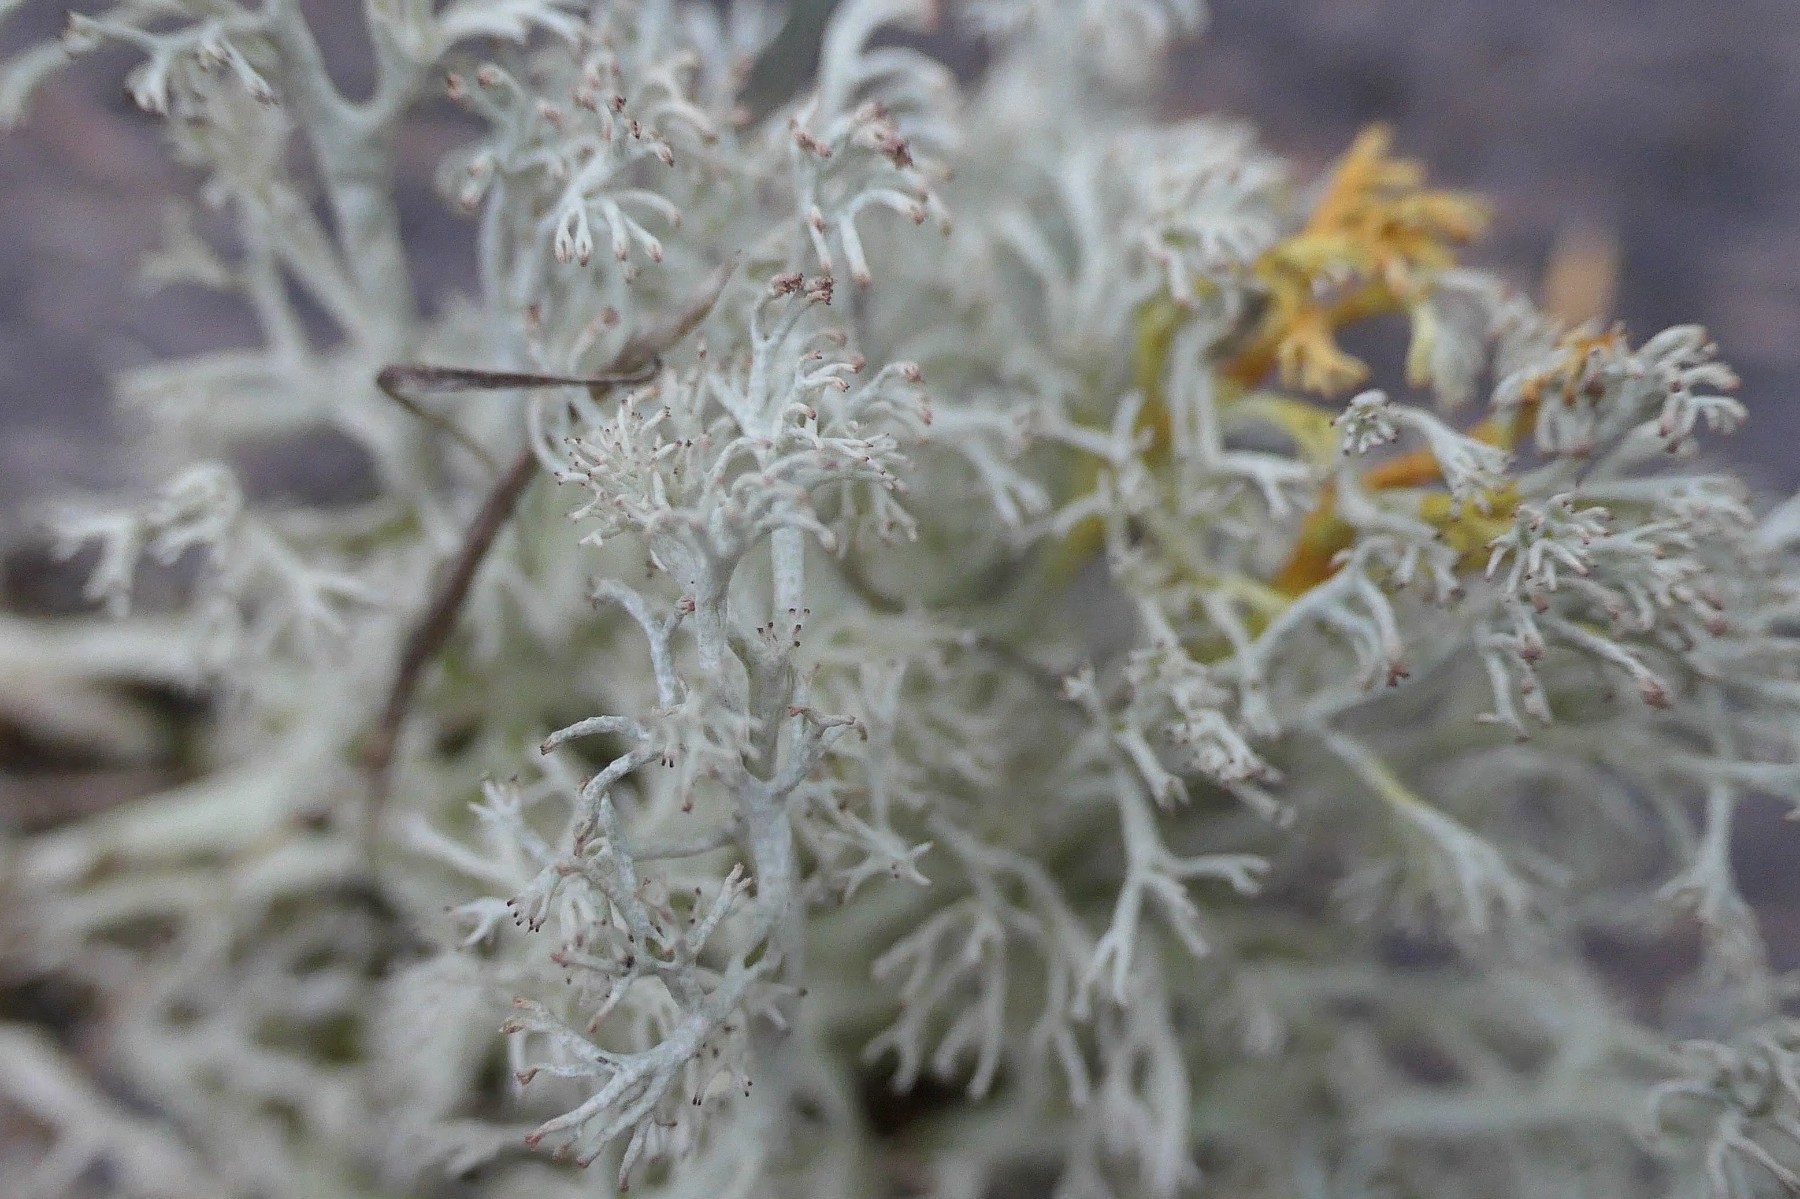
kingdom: Fungi
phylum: Ascomycota
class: Lecanoromycetes
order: Lecanorales
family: Cladoniaceae
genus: Cladonia
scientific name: Cladonia arbuscula
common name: gulhvid rensdyrlav
